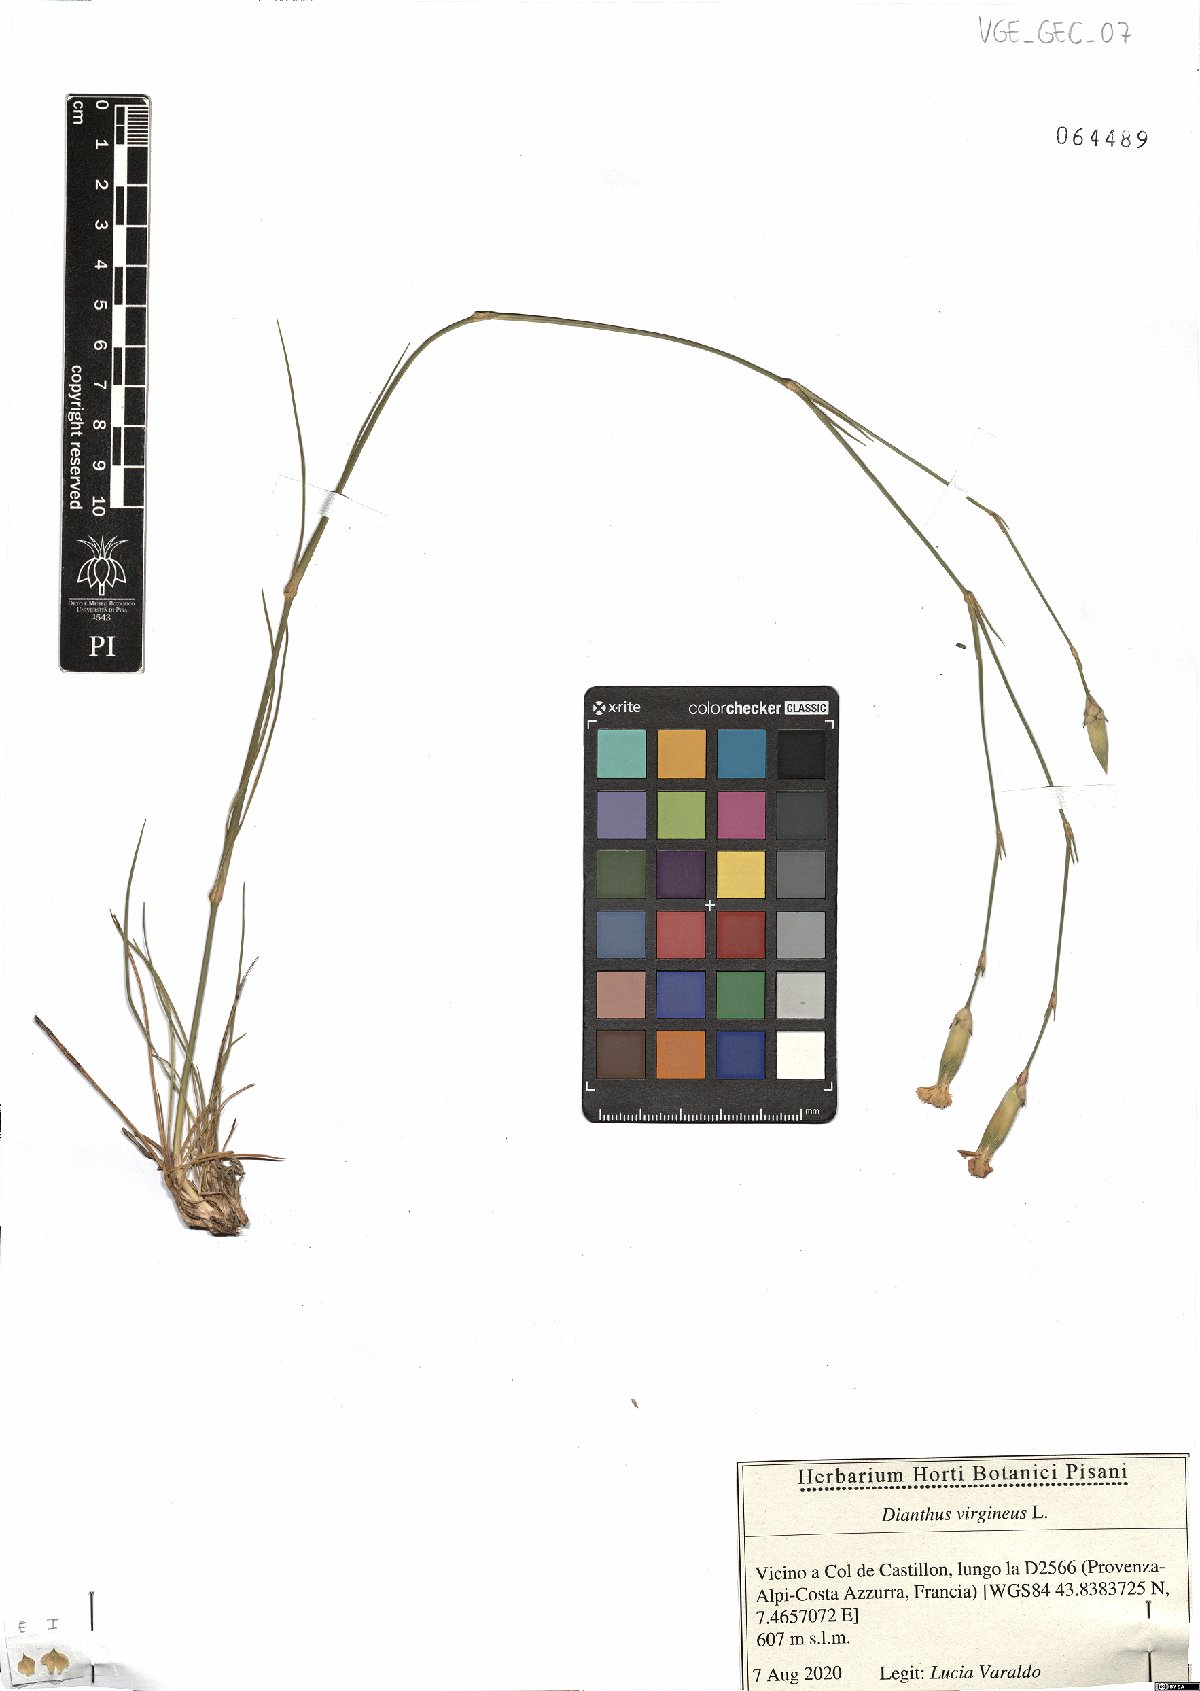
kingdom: Plantae
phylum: Tracheophyta
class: Magnoliopsida
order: Caryophyllales
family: Caryophyllaceae
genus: Dianthus
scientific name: Dianthus virgineus
